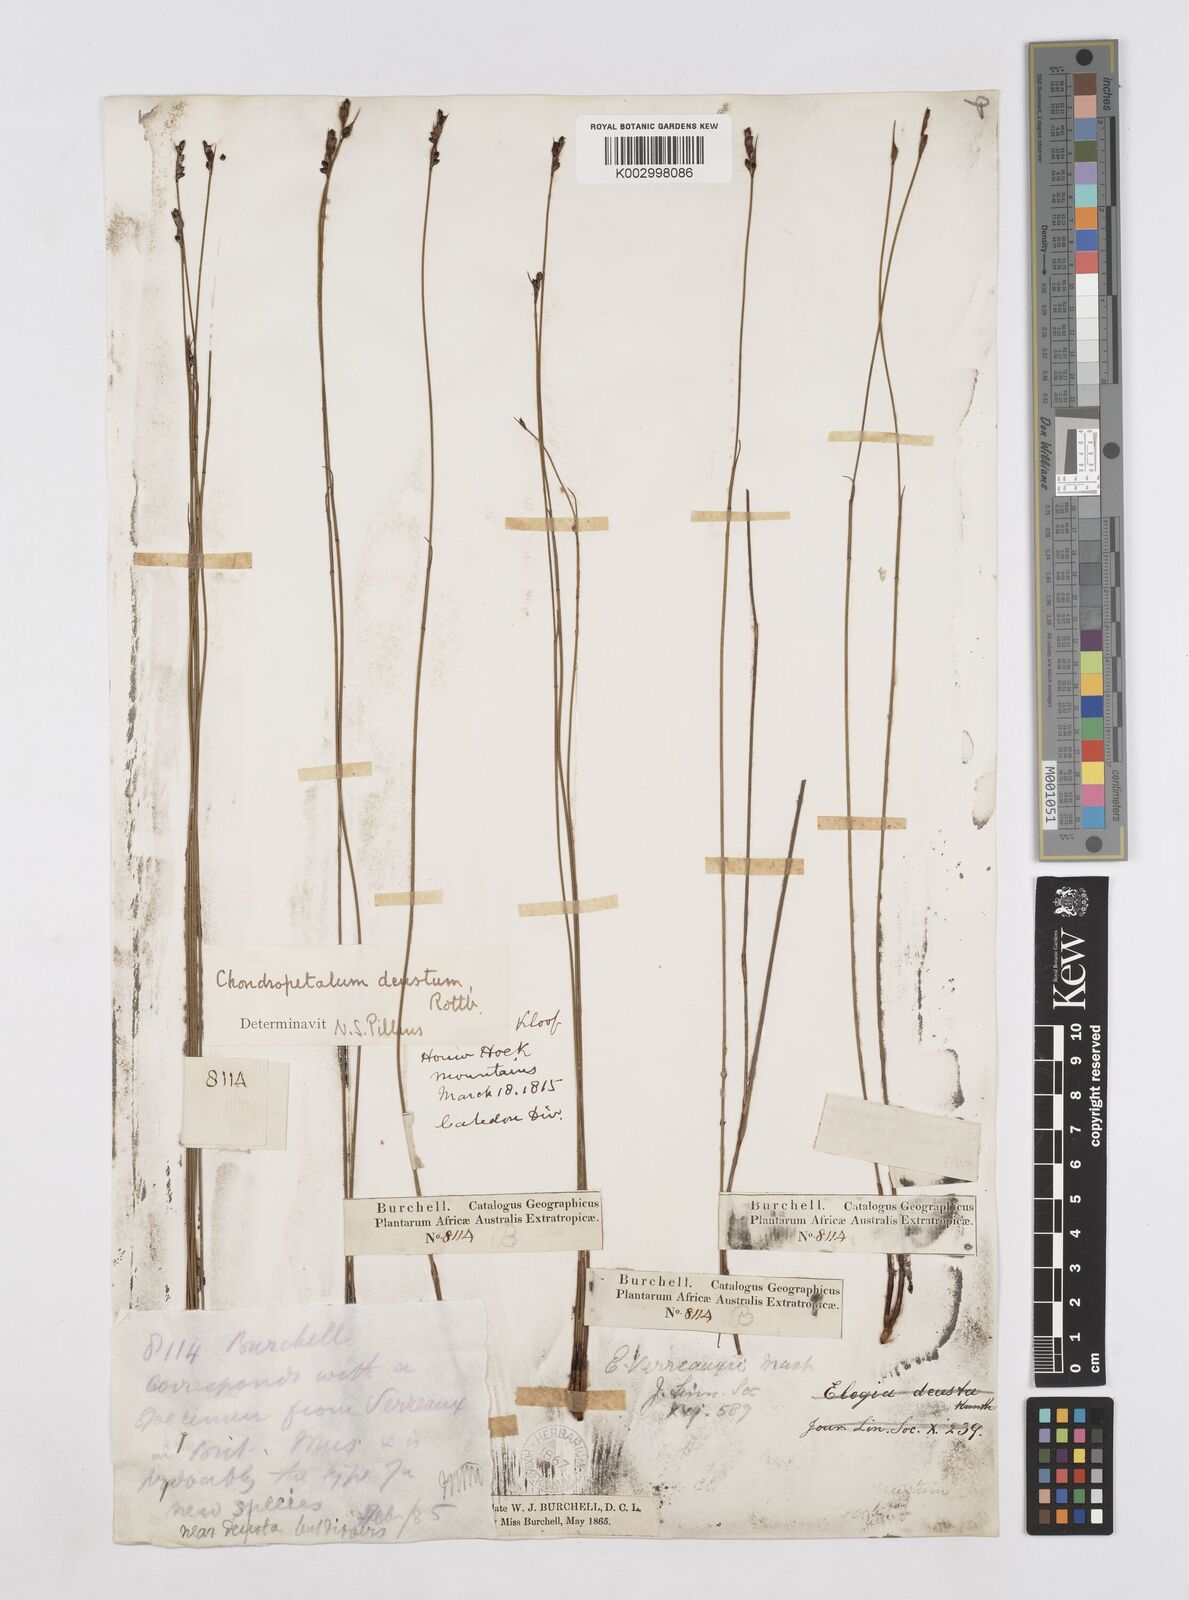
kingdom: Plantae
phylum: Tracheophyta
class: Liliopsida
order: Poales
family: Restionaceae
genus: Elegia
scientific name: Elegia deusta
